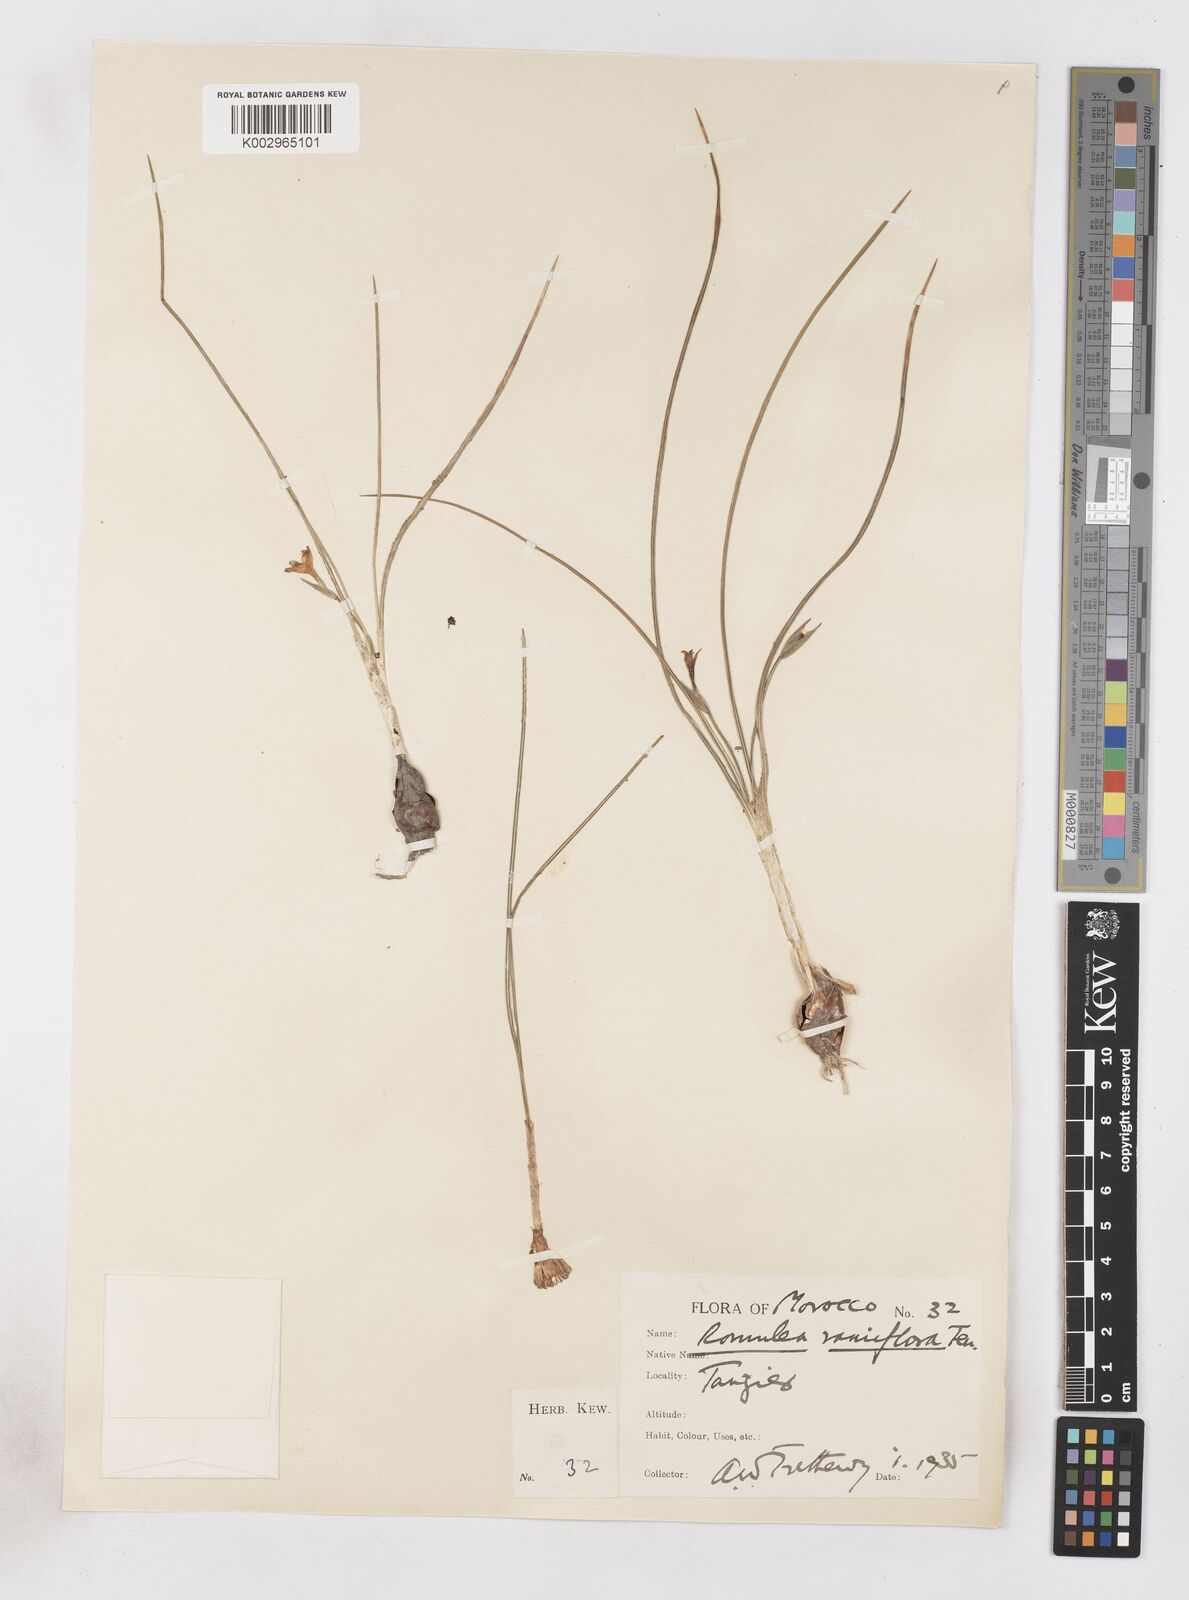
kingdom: Plantae
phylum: Tracheophyta
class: Liliopsida
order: Asparagales
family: Iridaceae
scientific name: Iridaceae
